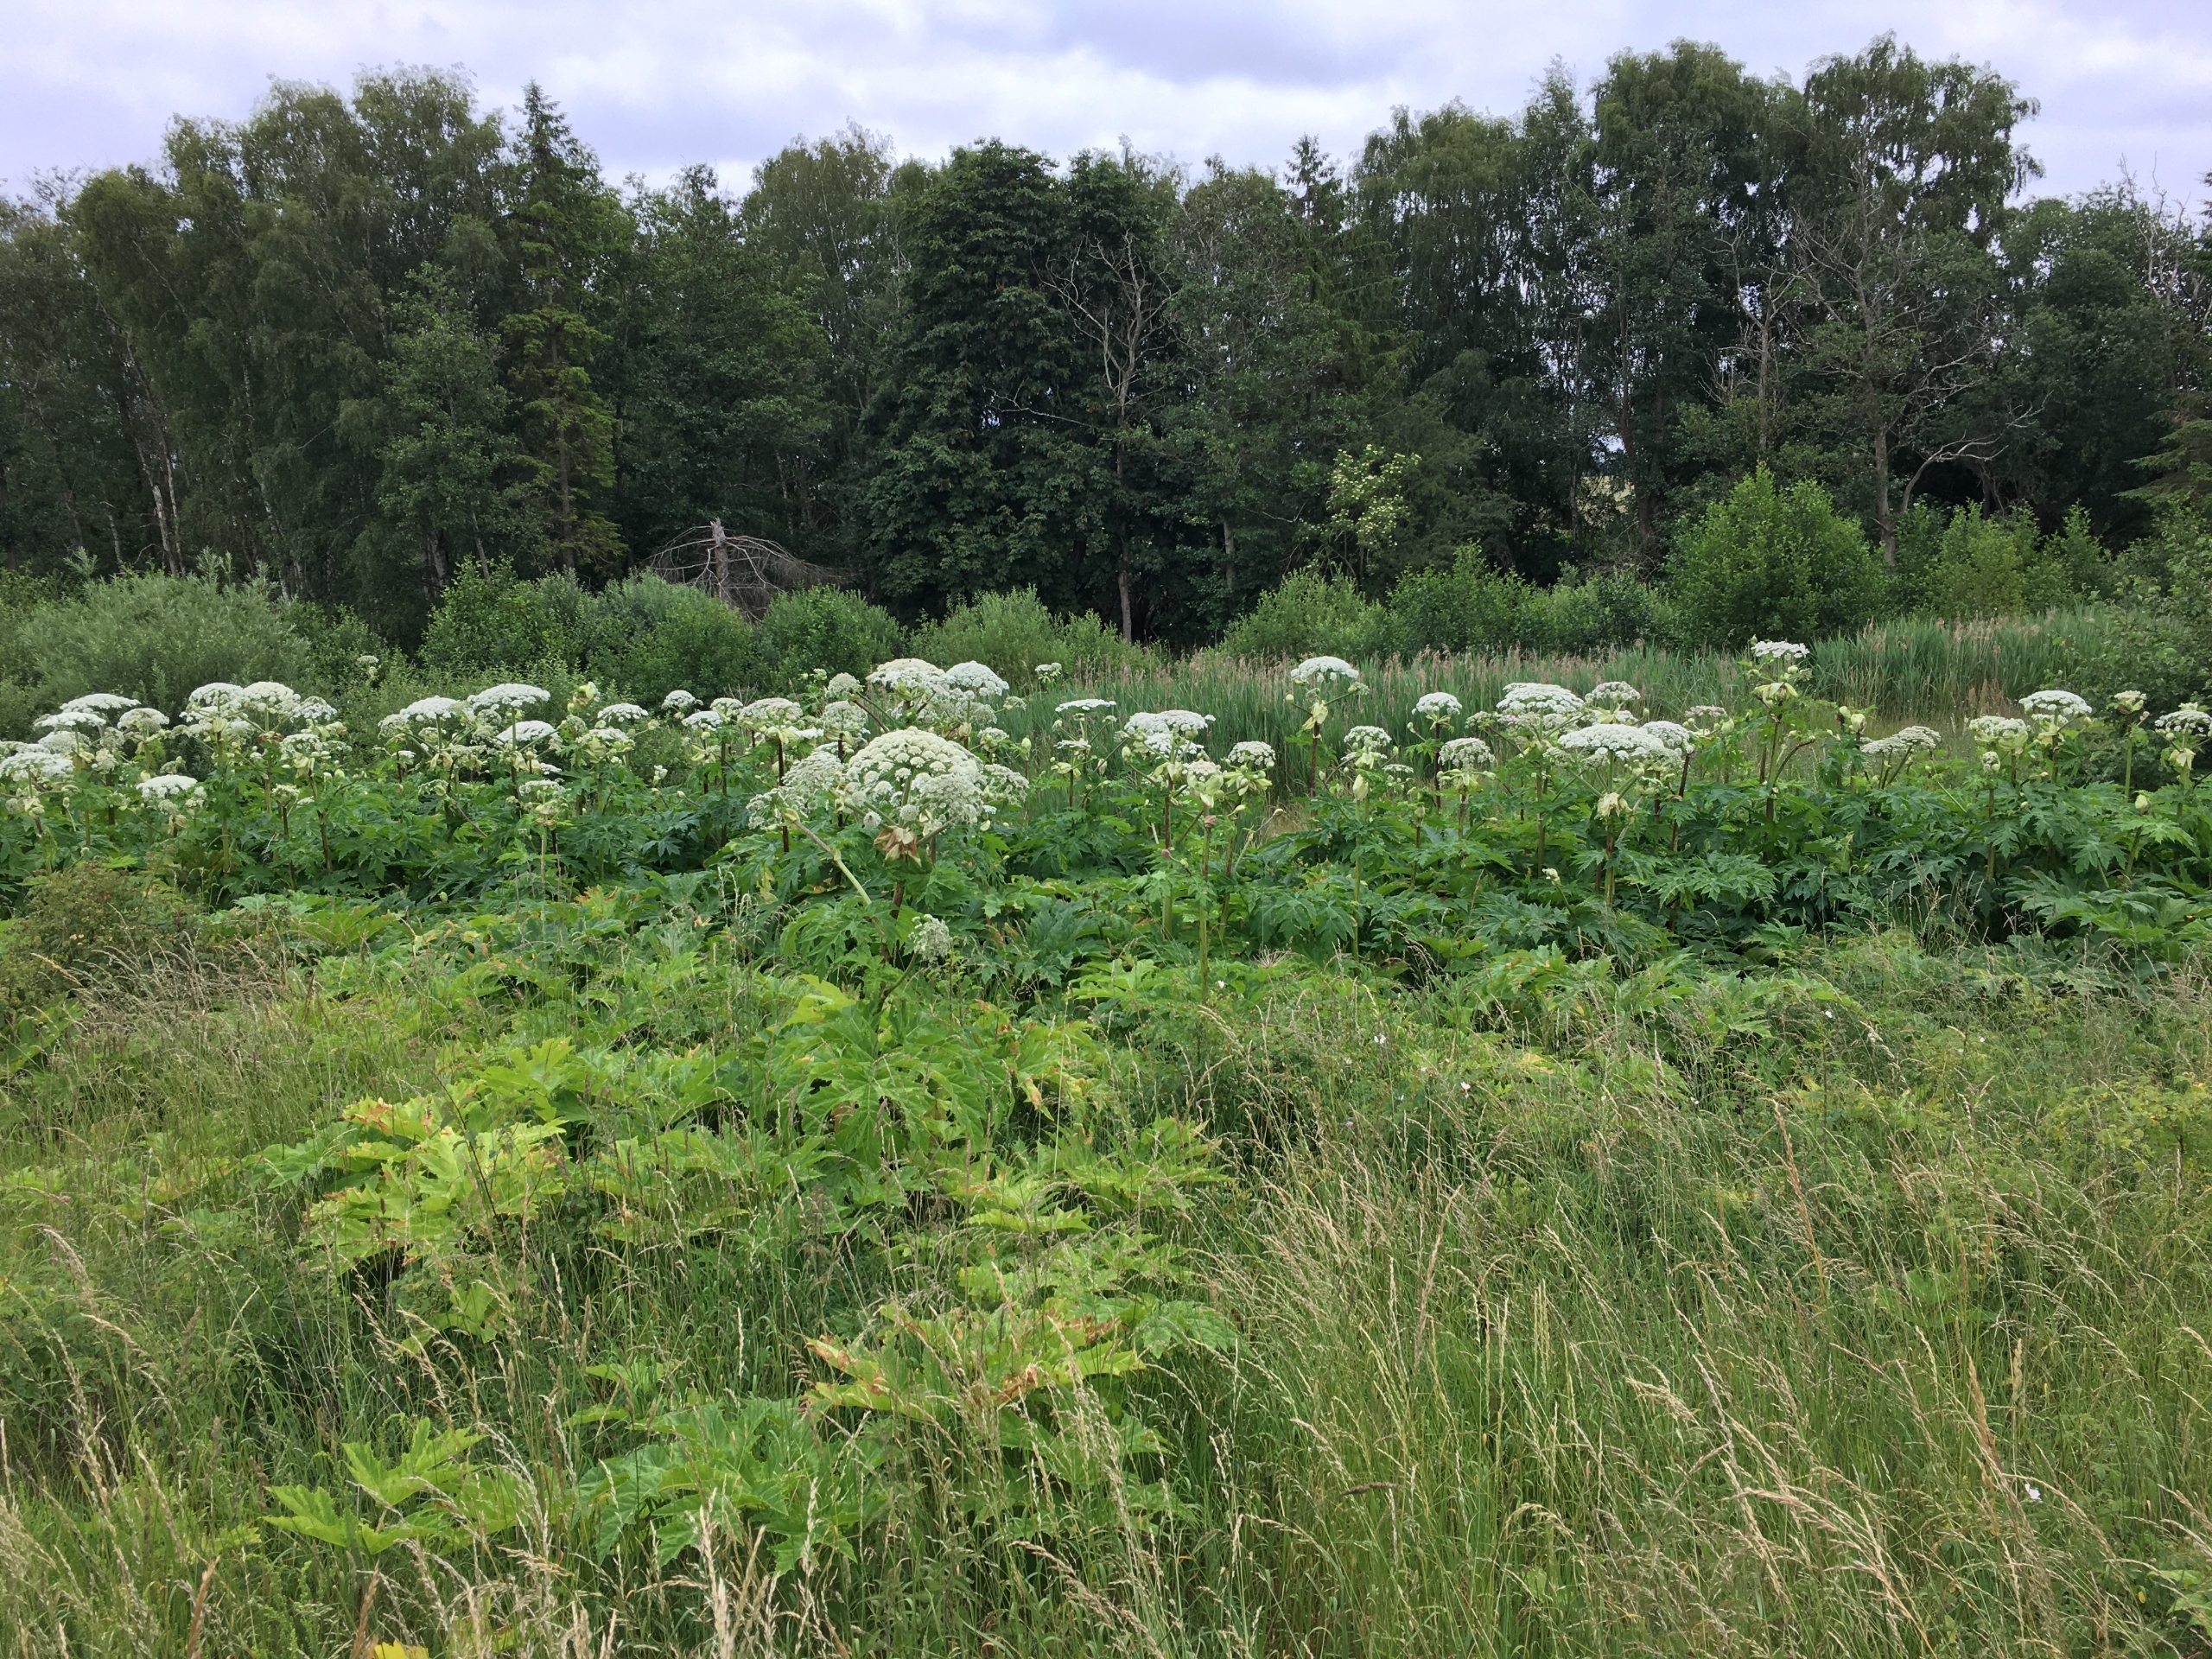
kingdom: Plantae
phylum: Tracheophyta
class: Magnoliopsida
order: Apiales
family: Apiaceae
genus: Heracleum
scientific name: Heracleum mantegazzianum
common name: Kæmpe-bjørneklo
